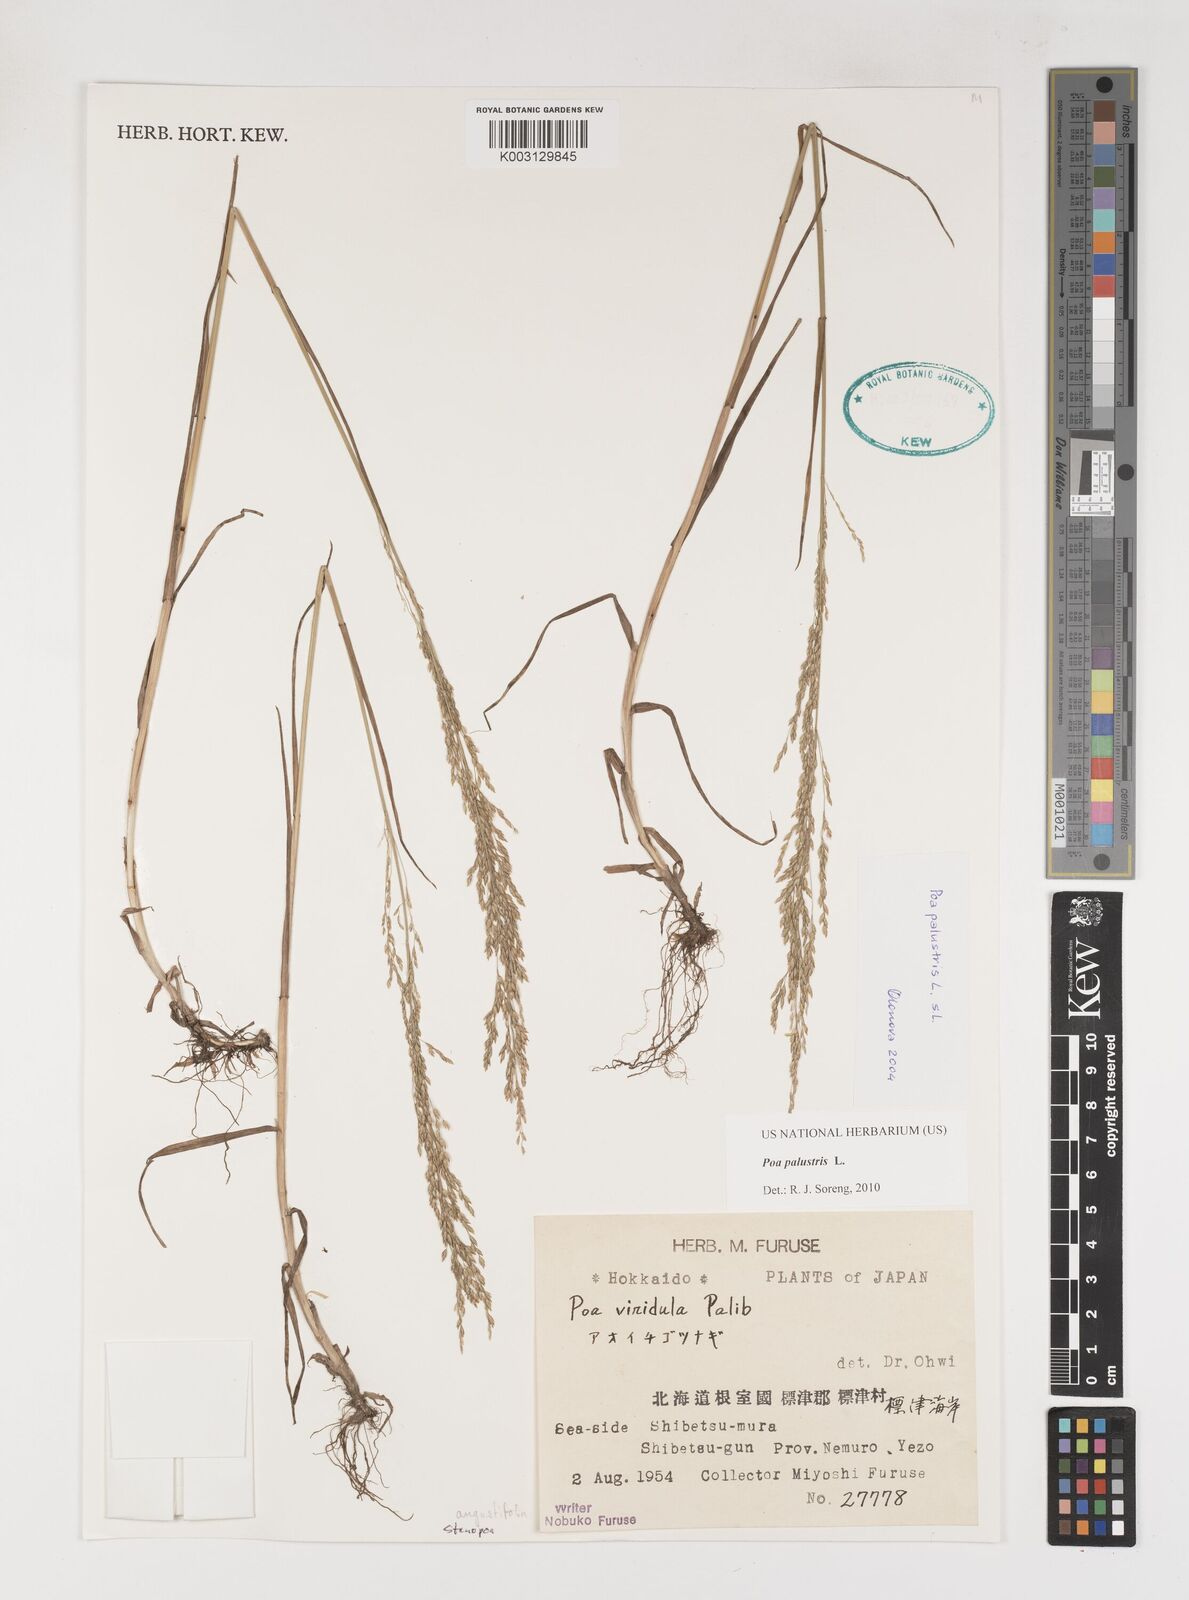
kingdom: Plantae
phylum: Tracheophyta
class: Liliopsida
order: Poales
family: Poaceae
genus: Poa
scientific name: Poa palustris
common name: Swamp meadow-grass
